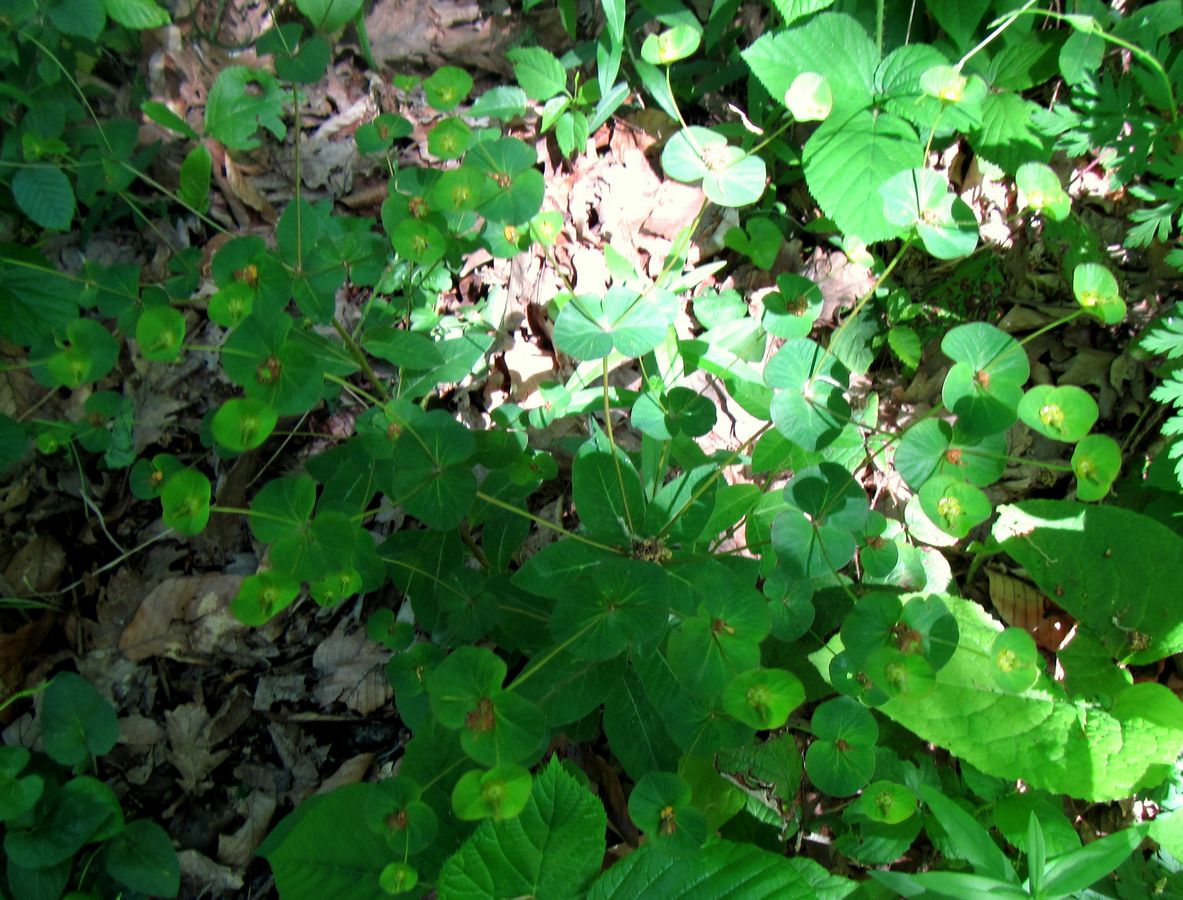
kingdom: Plantae
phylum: Tracheophyta
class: Magnoliopsida
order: Malpighiales
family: Euphorbiaceae
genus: Euphorbia
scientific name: Euphorbia squamosa
